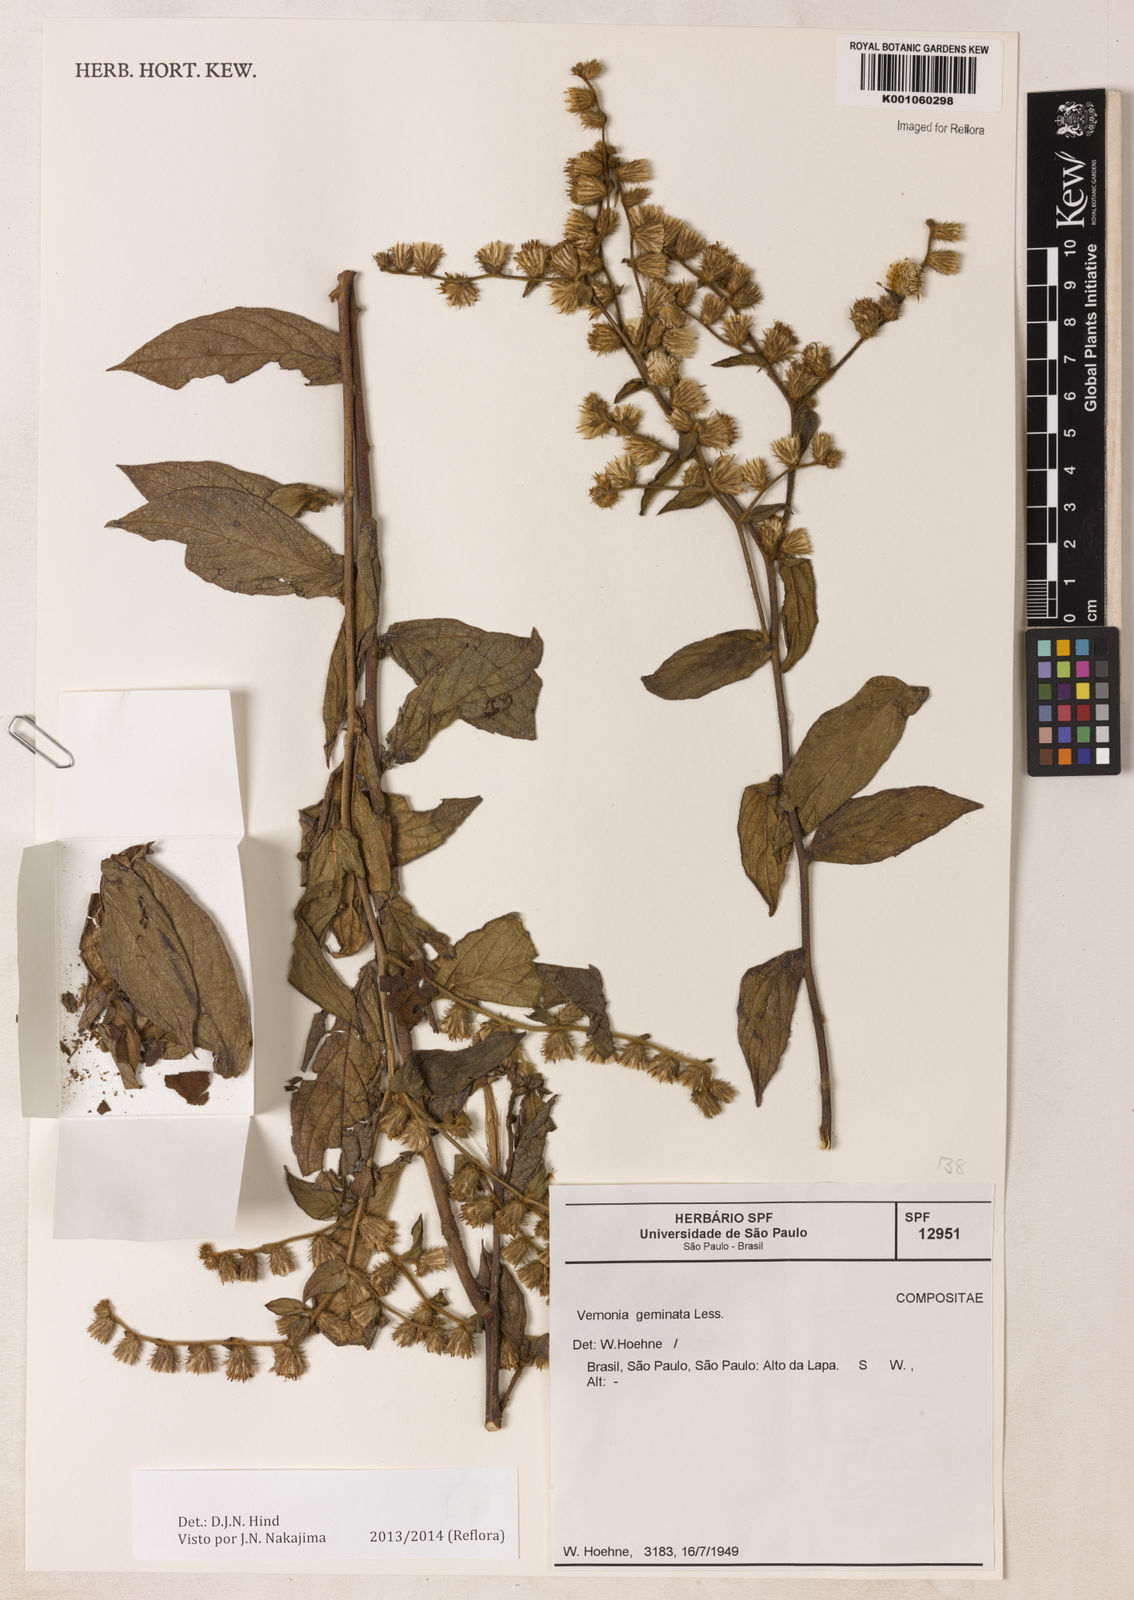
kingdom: Plantae
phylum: Tracheophyta
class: Magnoliopsida
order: Asterales
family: Asteraceae
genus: Lepidaploa
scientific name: Lepidaploa canescens
